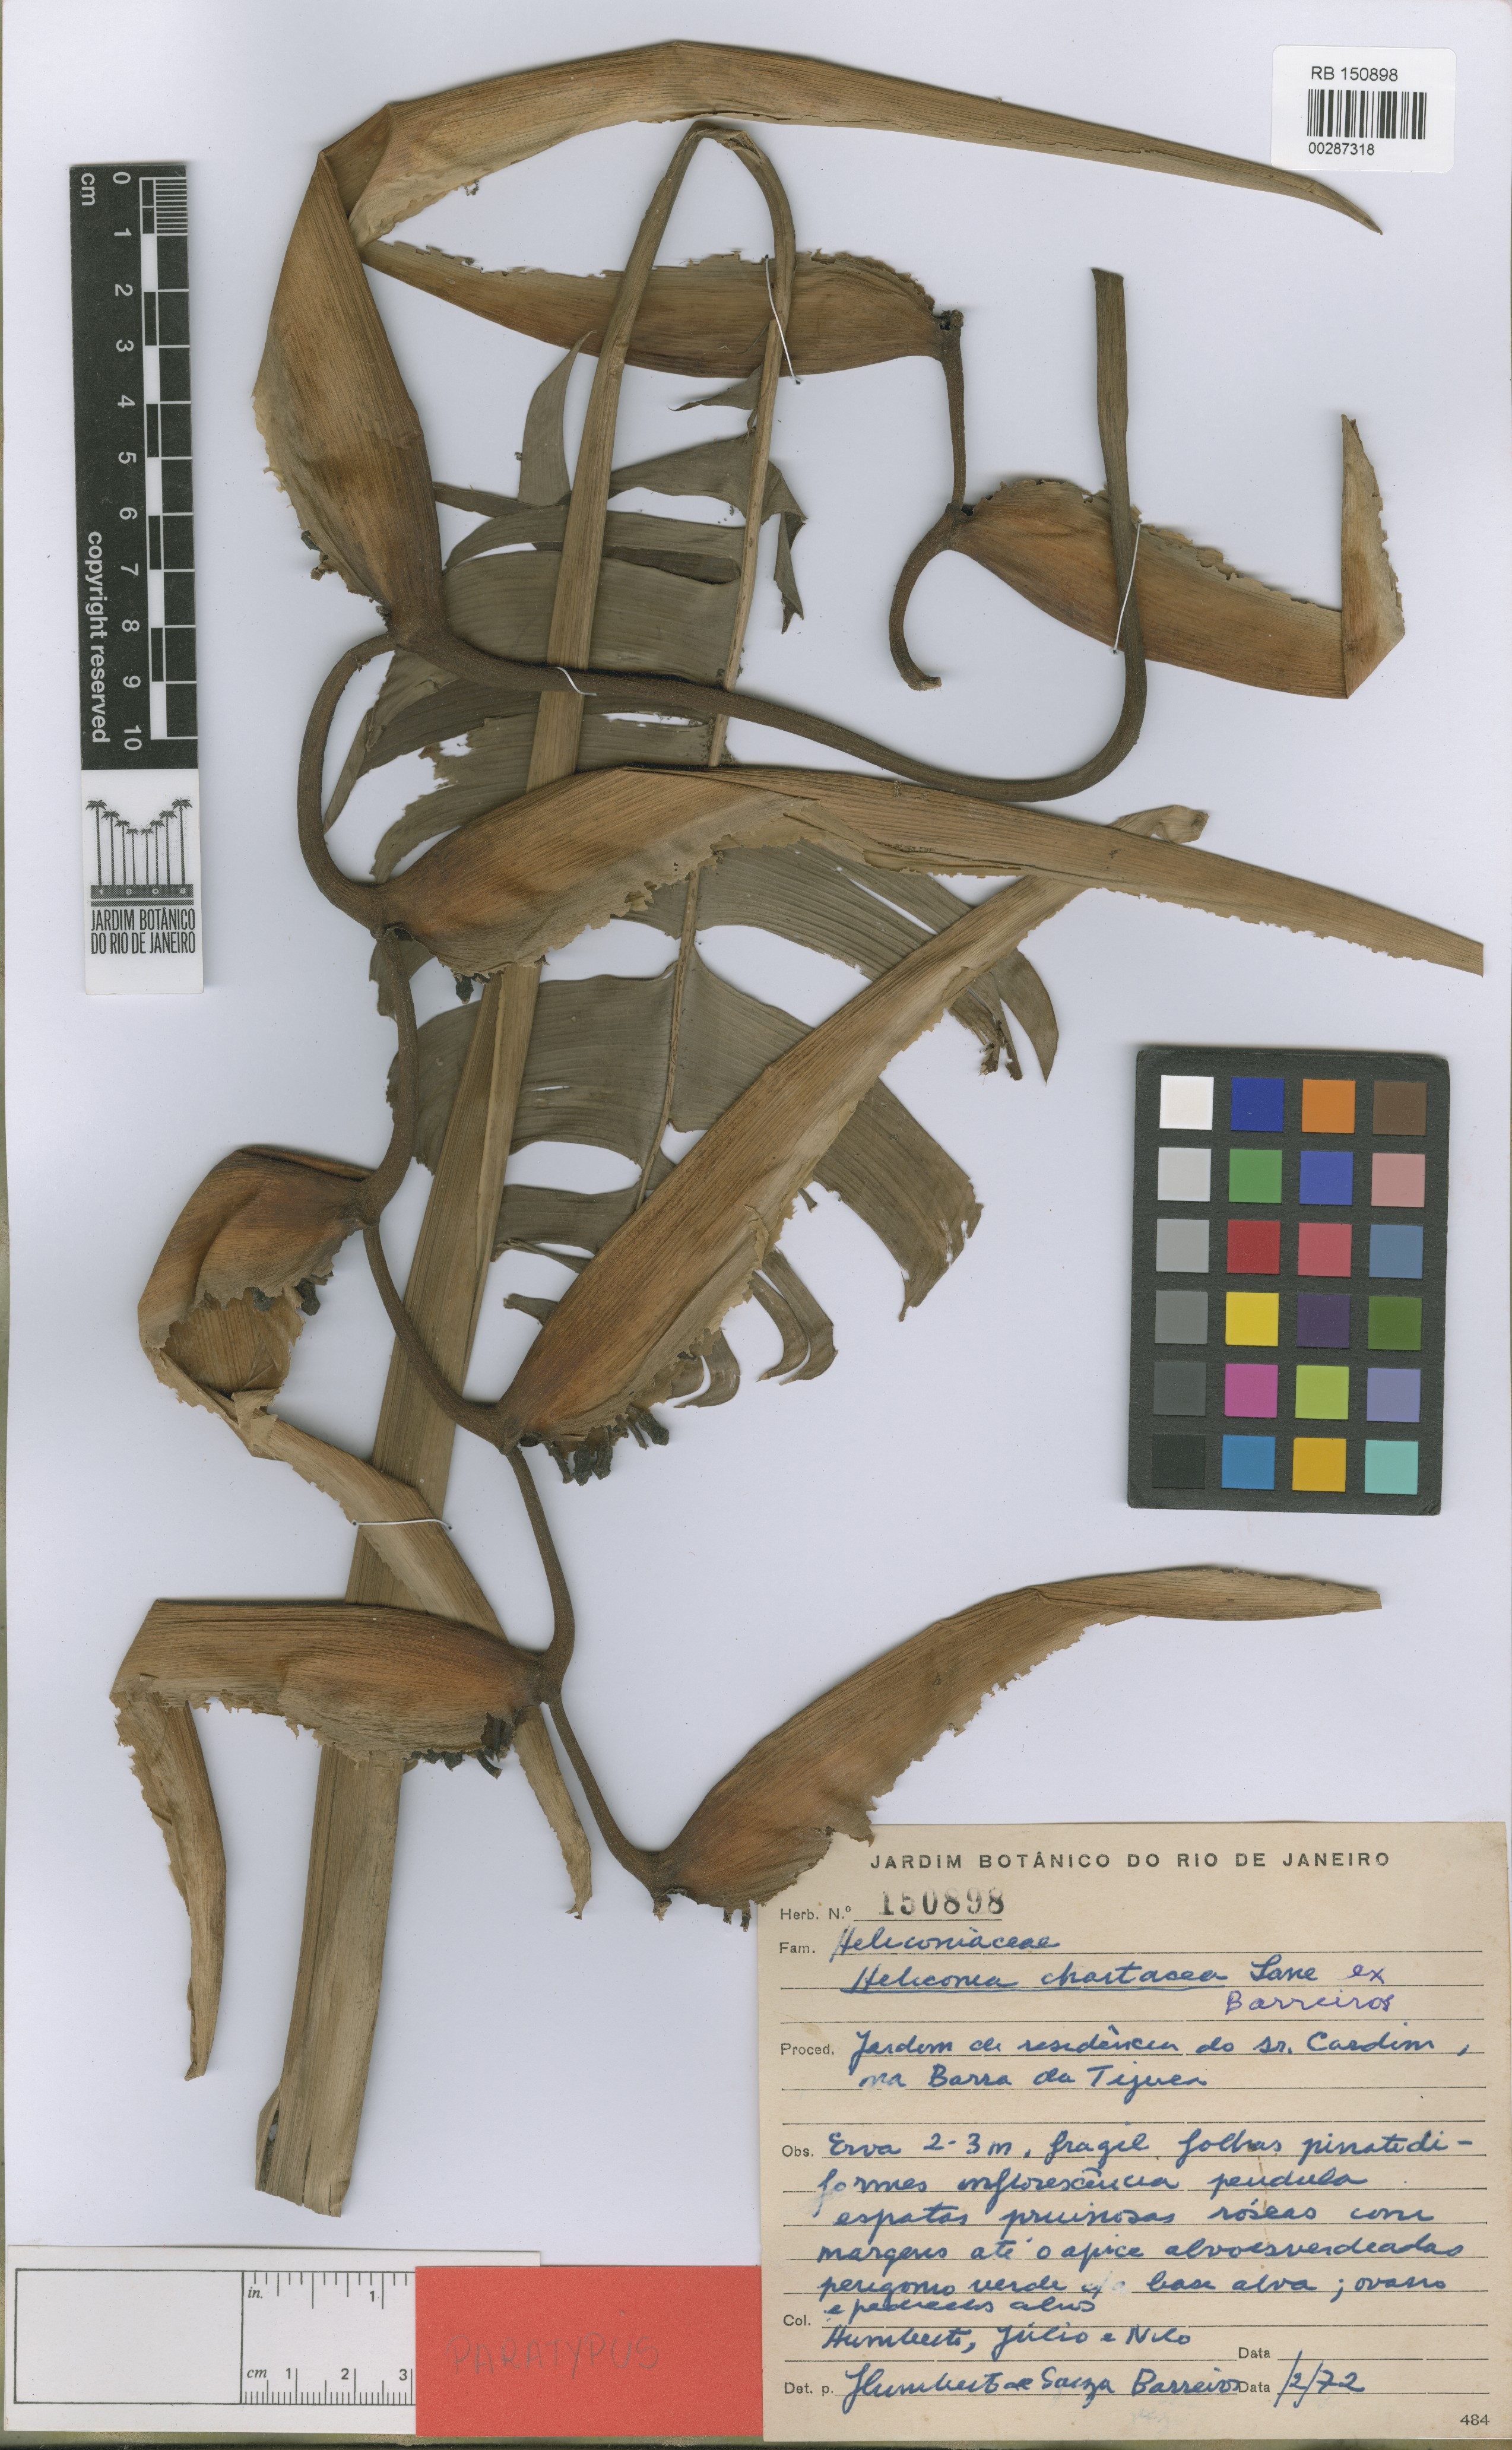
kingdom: Plantae
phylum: Tracheophyta
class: Liliopsida
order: Zingiberales
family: Heliconiaceae
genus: Heliconia
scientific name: Heliconia chartacea
